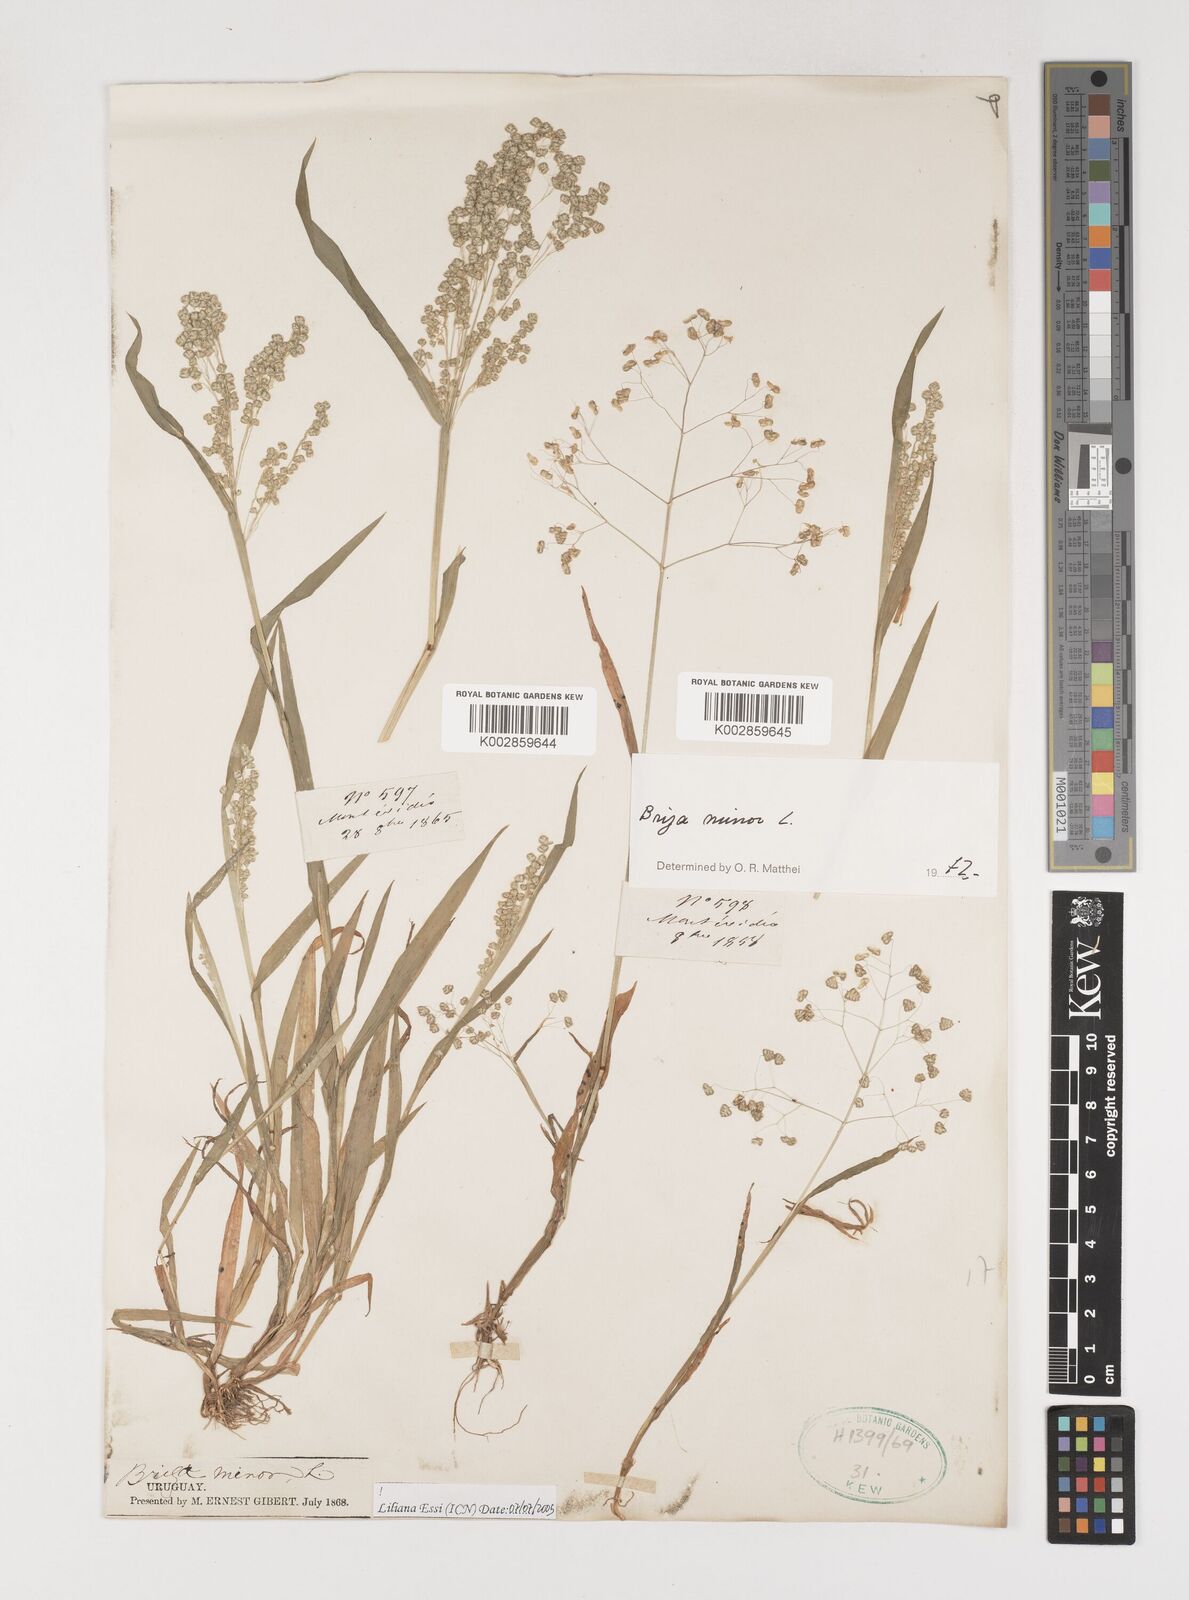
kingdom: Plantae
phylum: Tracheophyta
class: Liliopsida
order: Poales
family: Poaceae
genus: Briza
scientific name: Briza minor
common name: Lesser quaking-grass
